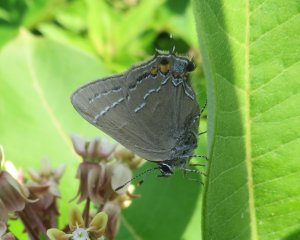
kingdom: Animalia
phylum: Arthropoda
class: Insecta
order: Lepidoptera
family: Lycaenidae
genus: Fixsenia
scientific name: Fixsenia favonius
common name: Oak Hairstreak
